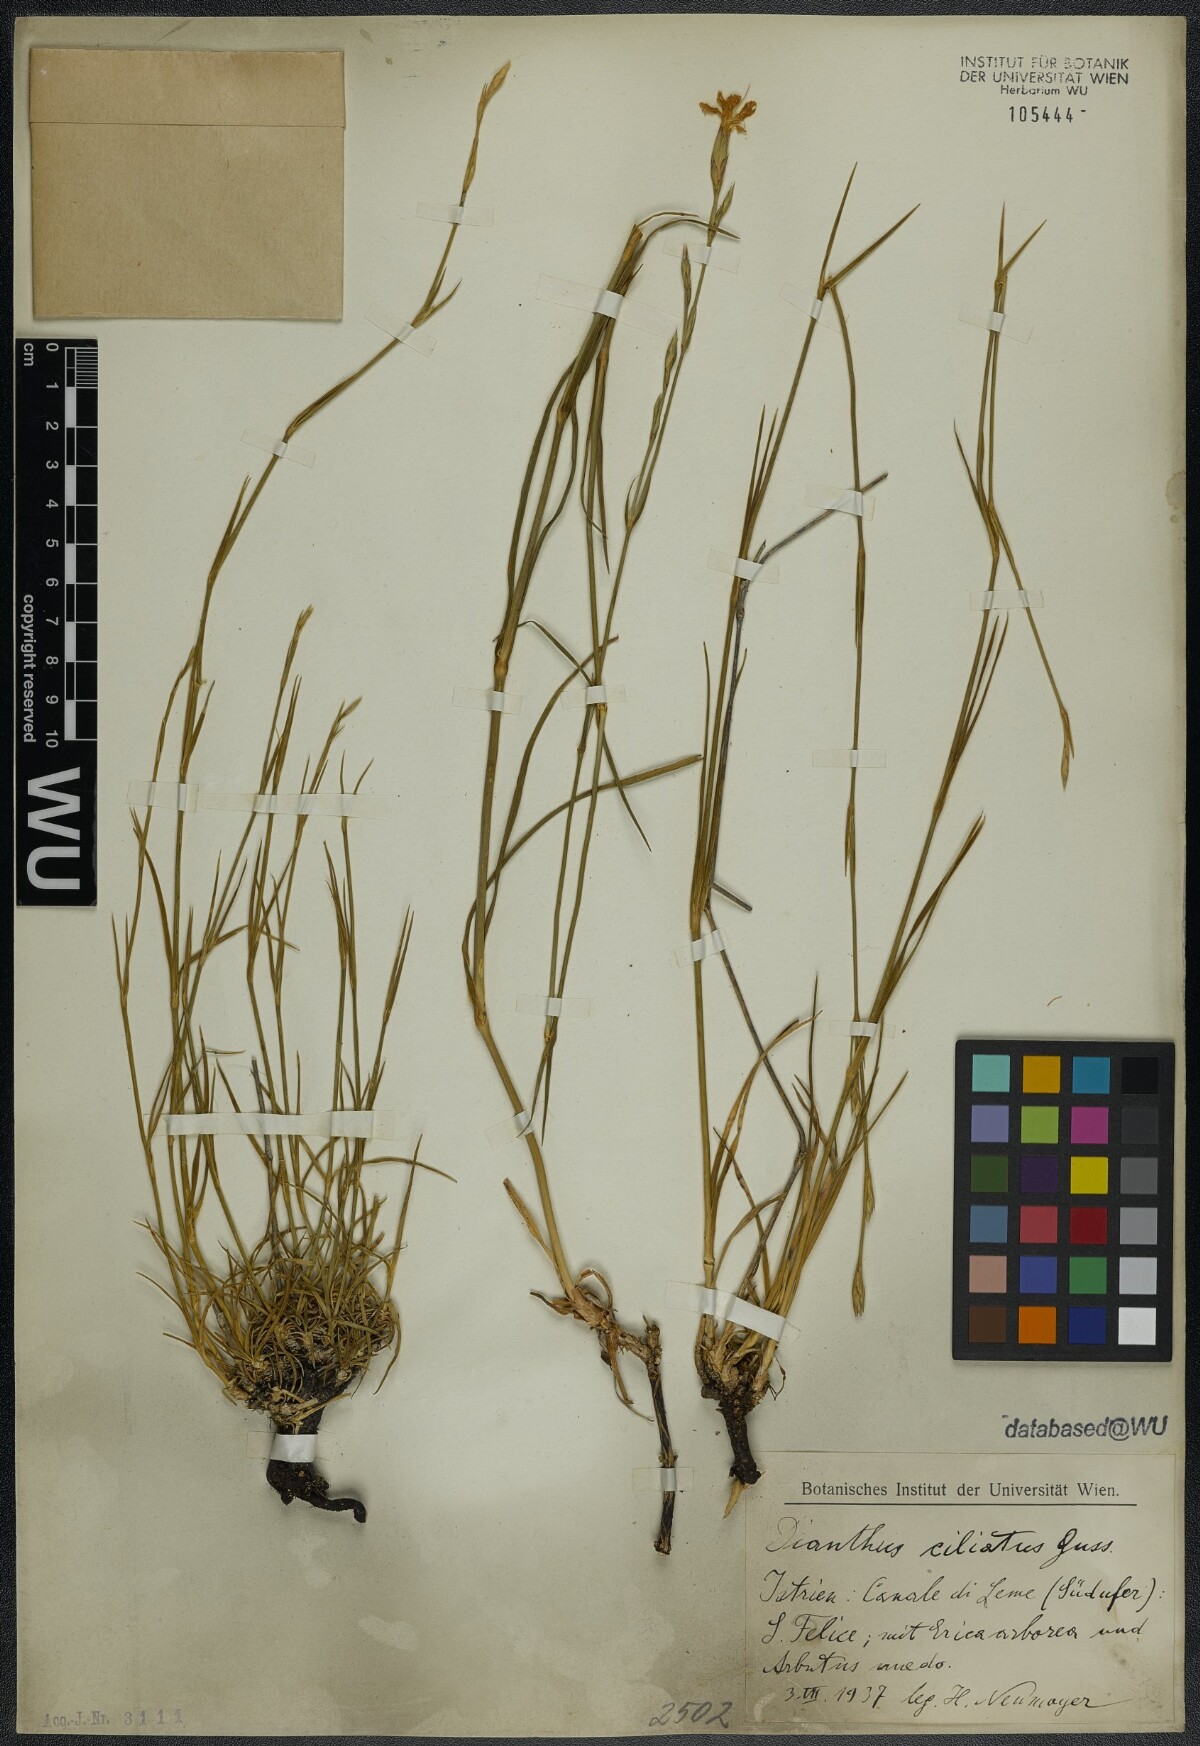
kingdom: Plantae
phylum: Tracheophyta
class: Magnoliopsida
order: Caryophyllales
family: Caryophyllaceae
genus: Dianthus
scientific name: Dianthus ciliatus
